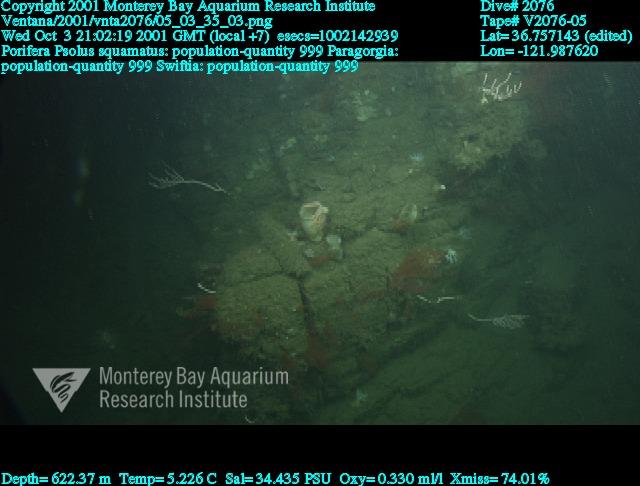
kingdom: Animalia
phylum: Porifera
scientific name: Porifera
